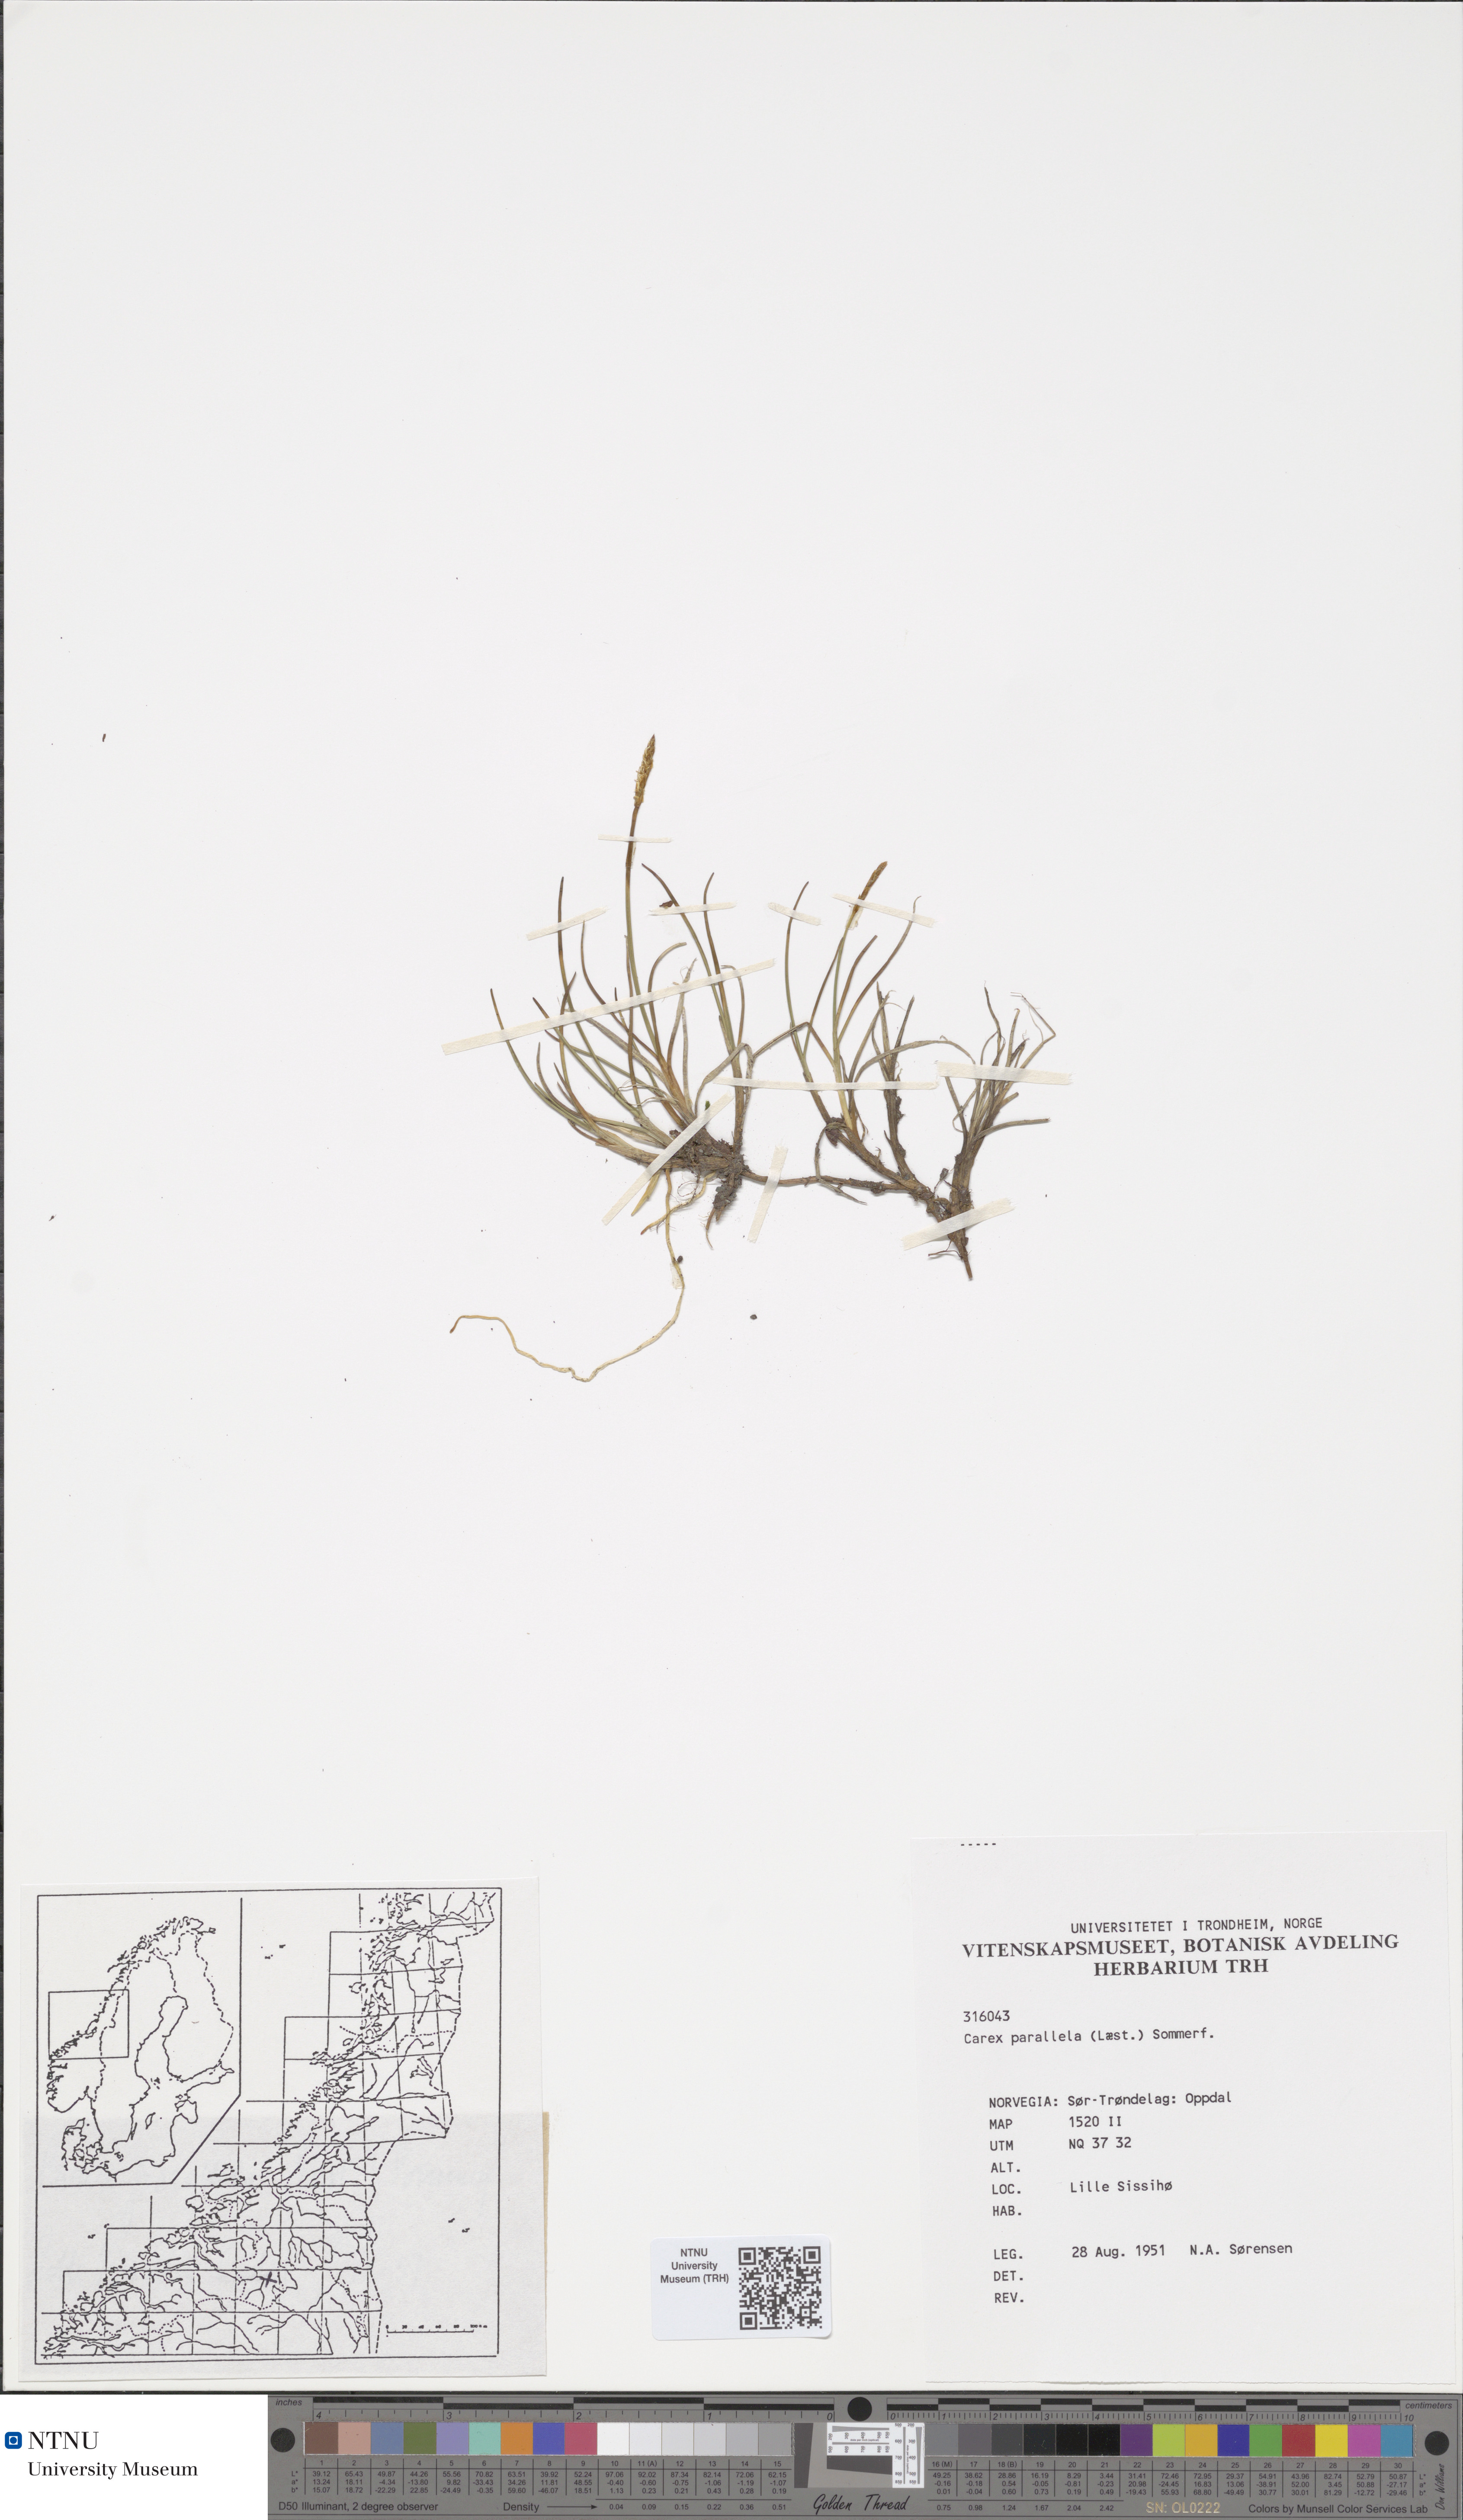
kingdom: Plantae
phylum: Tracheophyta
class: Liliopsida
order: Poales
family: Cyperaceae
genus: Carex
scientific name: Carex parallela
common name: Parallel sedge
